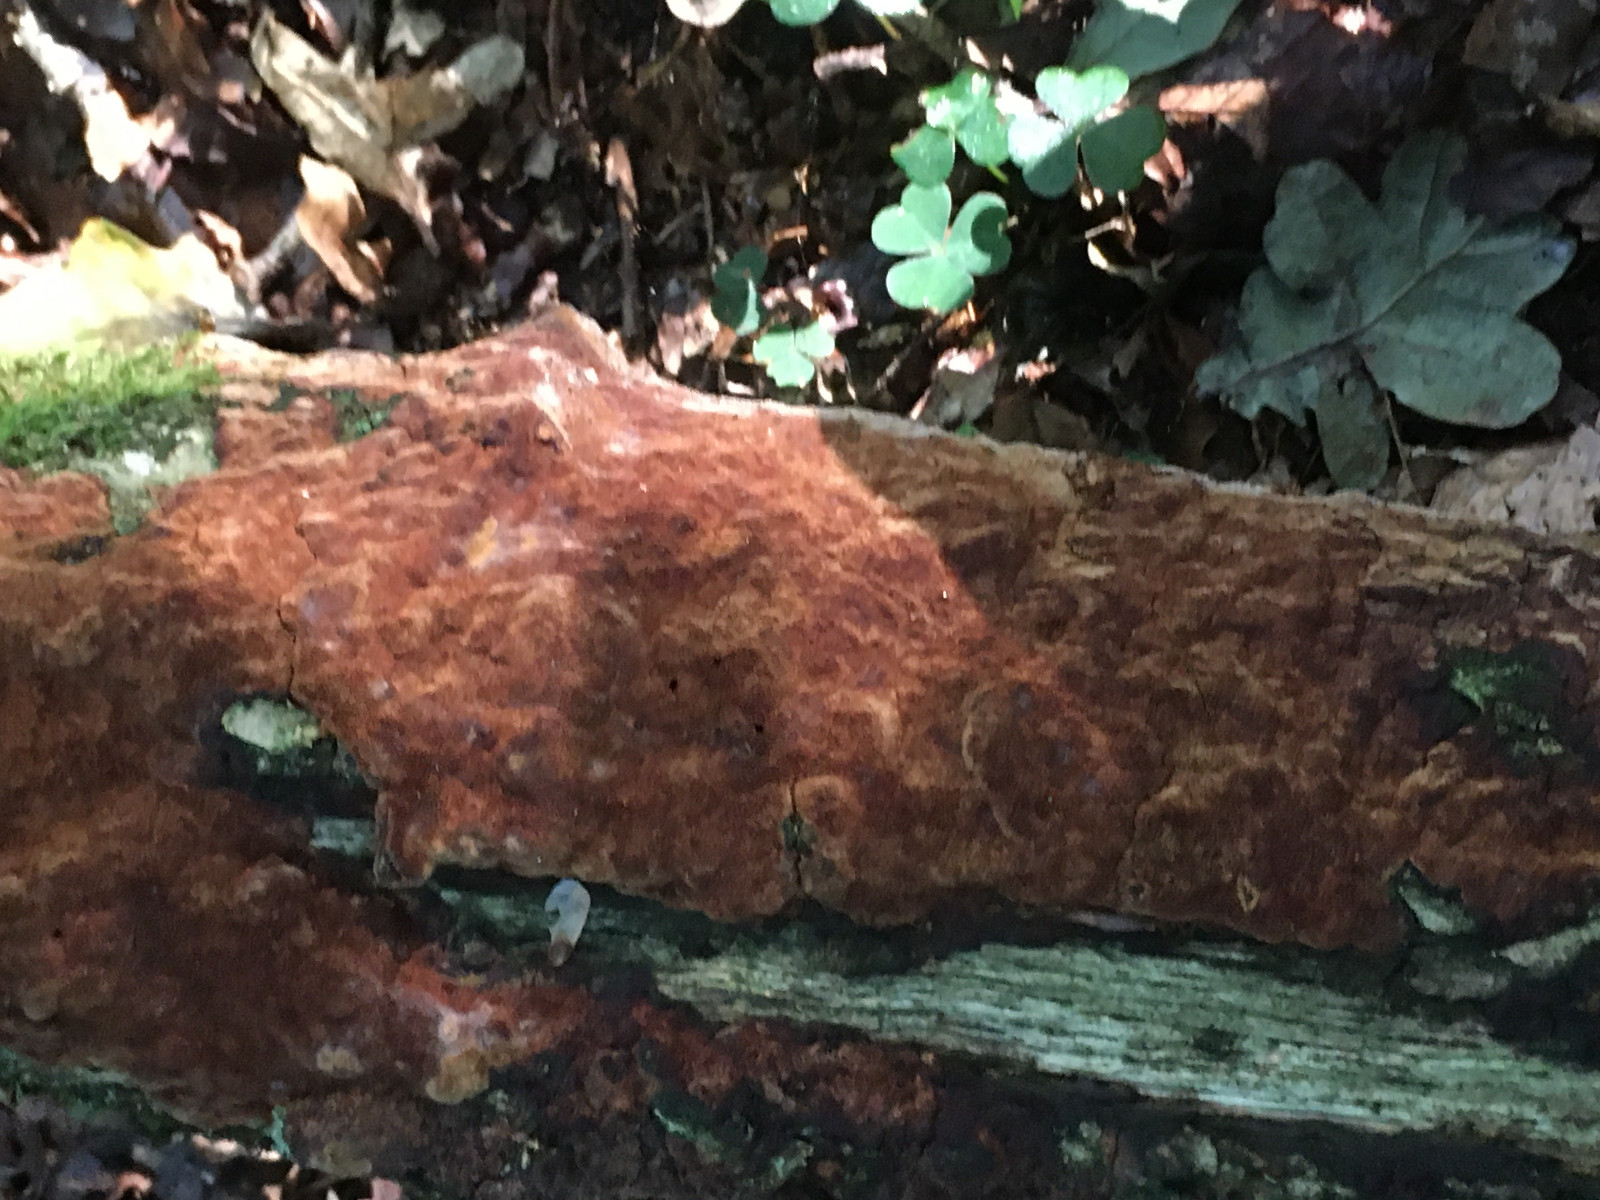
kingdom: Fungi
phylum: Basidiomycota
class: Agaricomycetes
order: Hymenochaetales
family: Hymenochaetaceae
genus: Fuscoporia
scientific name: Fuscoporia ferrea
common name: skorpe-ildporesvamp
